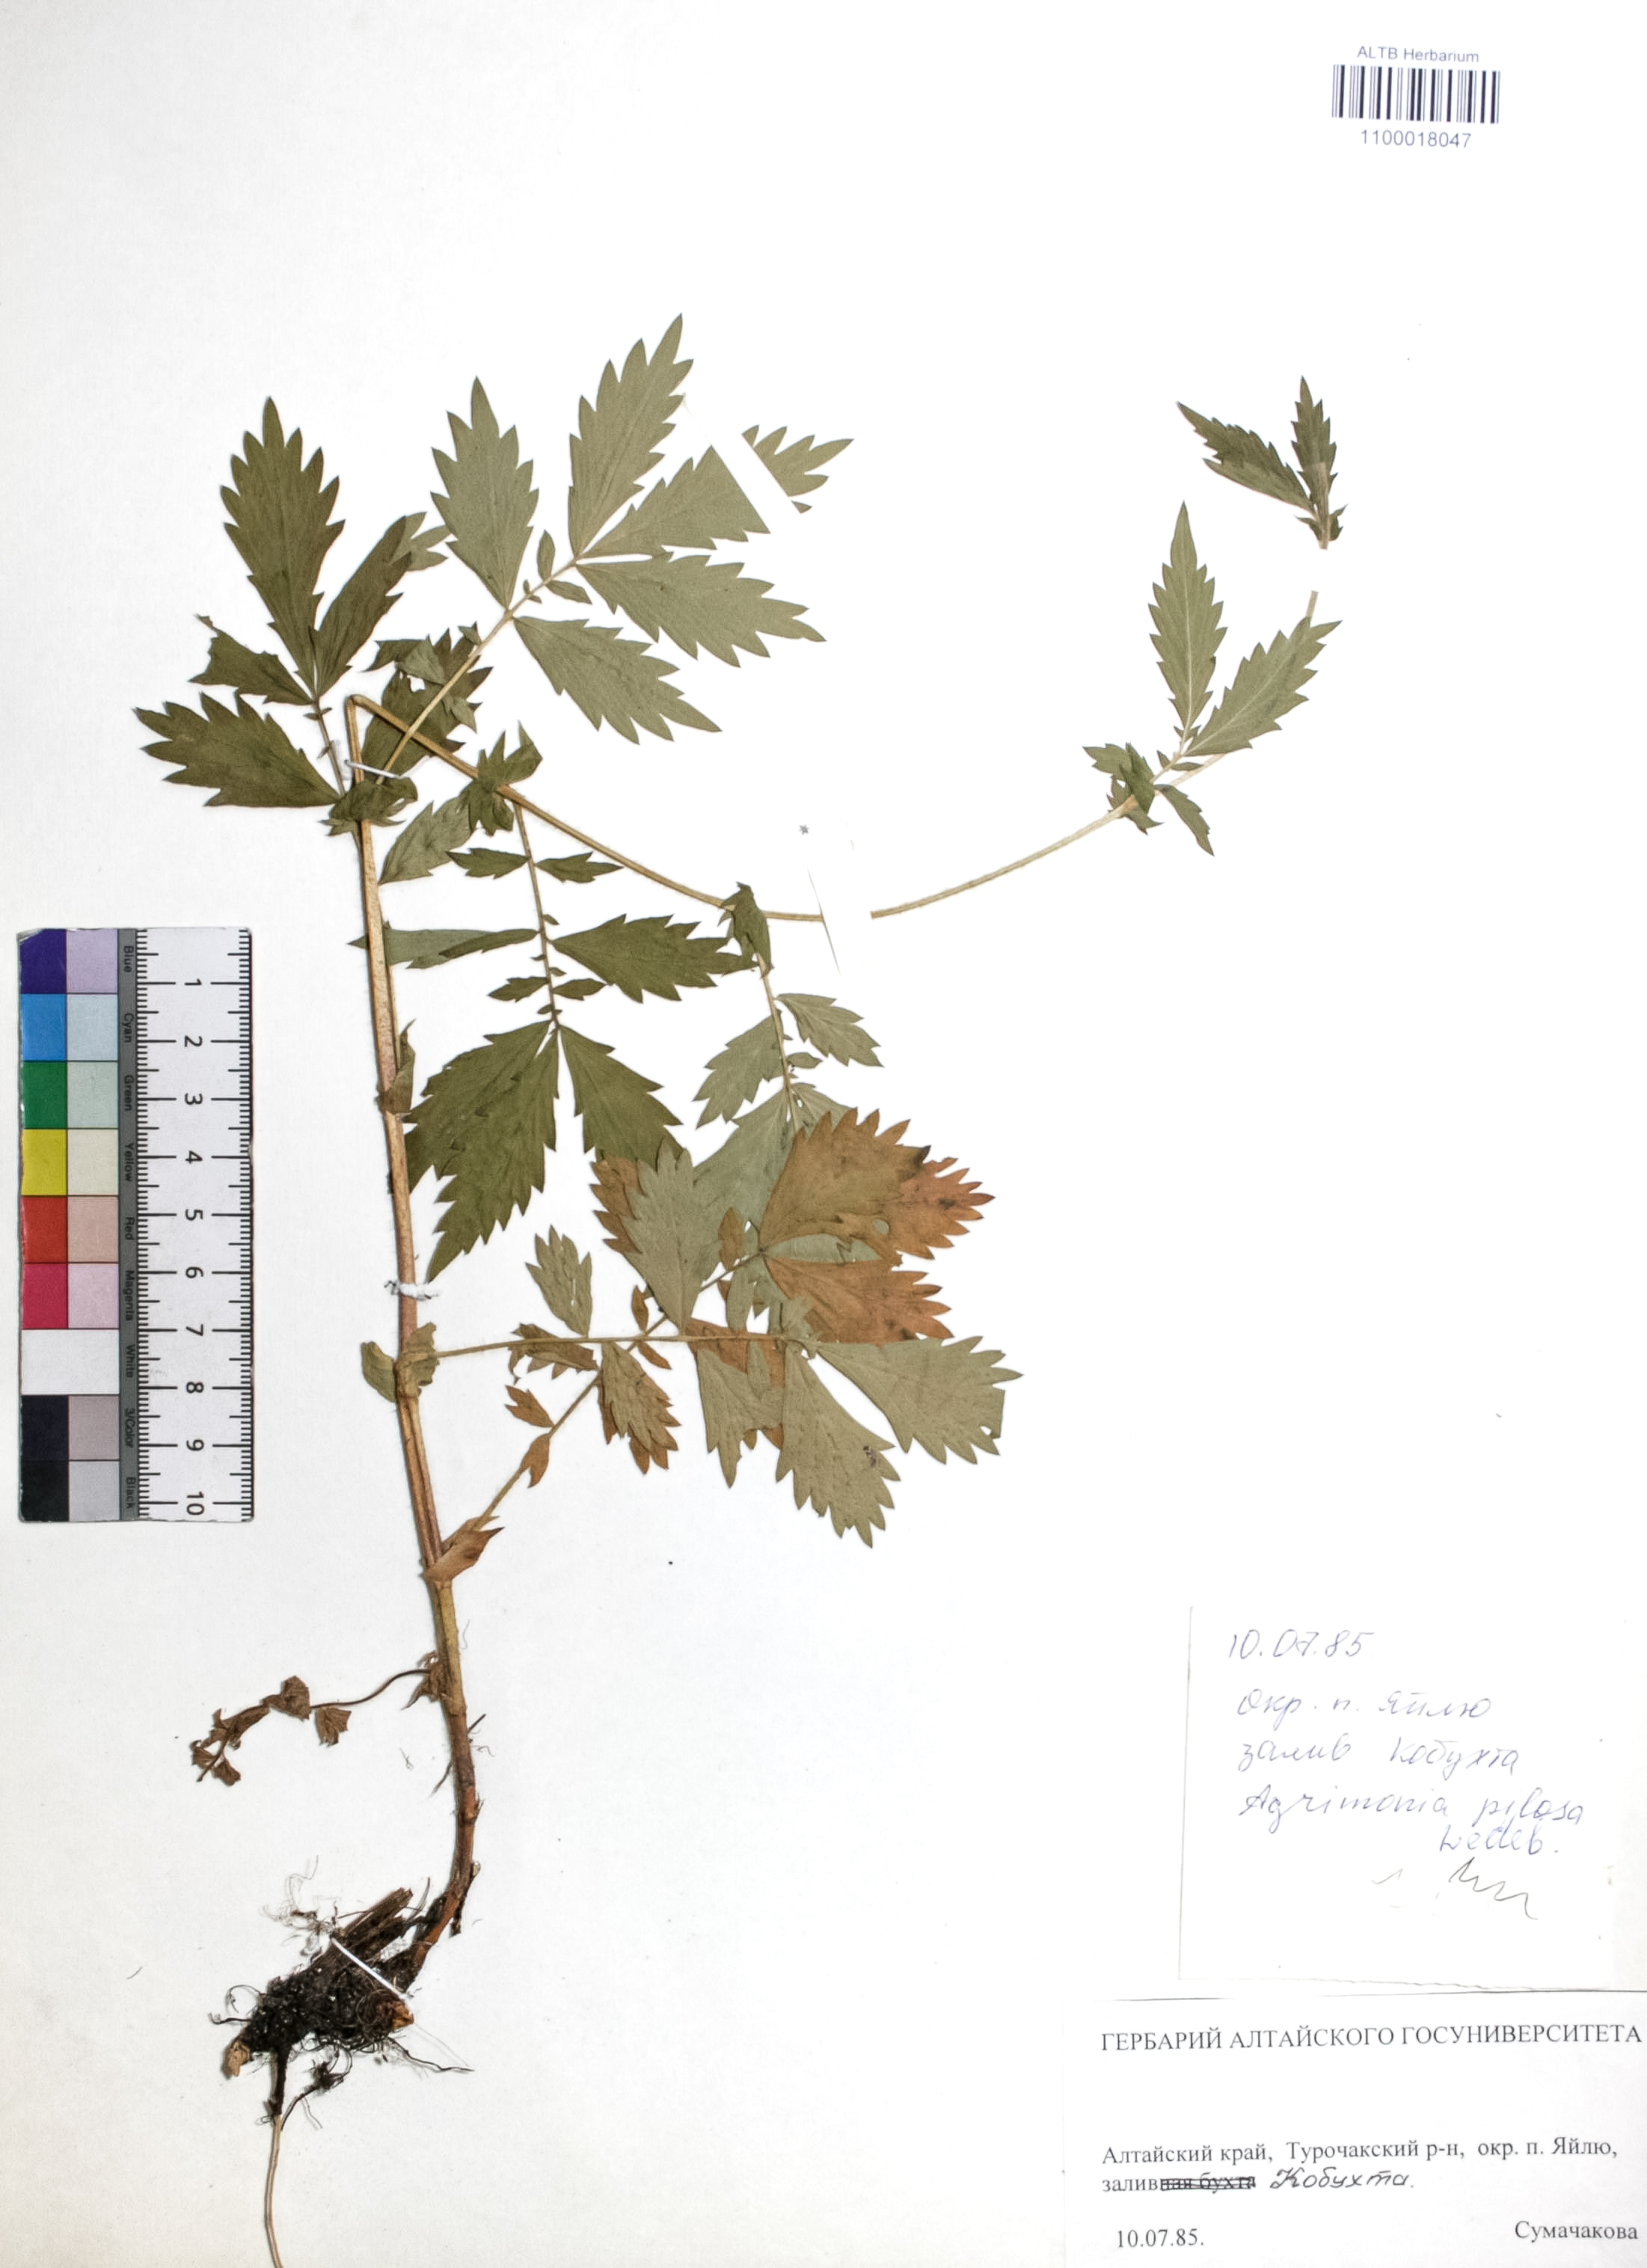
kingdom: Plantae
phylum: Tracheophyta
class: Magnoliopsida
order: Rosales
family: Rosaceae
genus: Agrimonia
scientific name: Agrimonia pilosa
